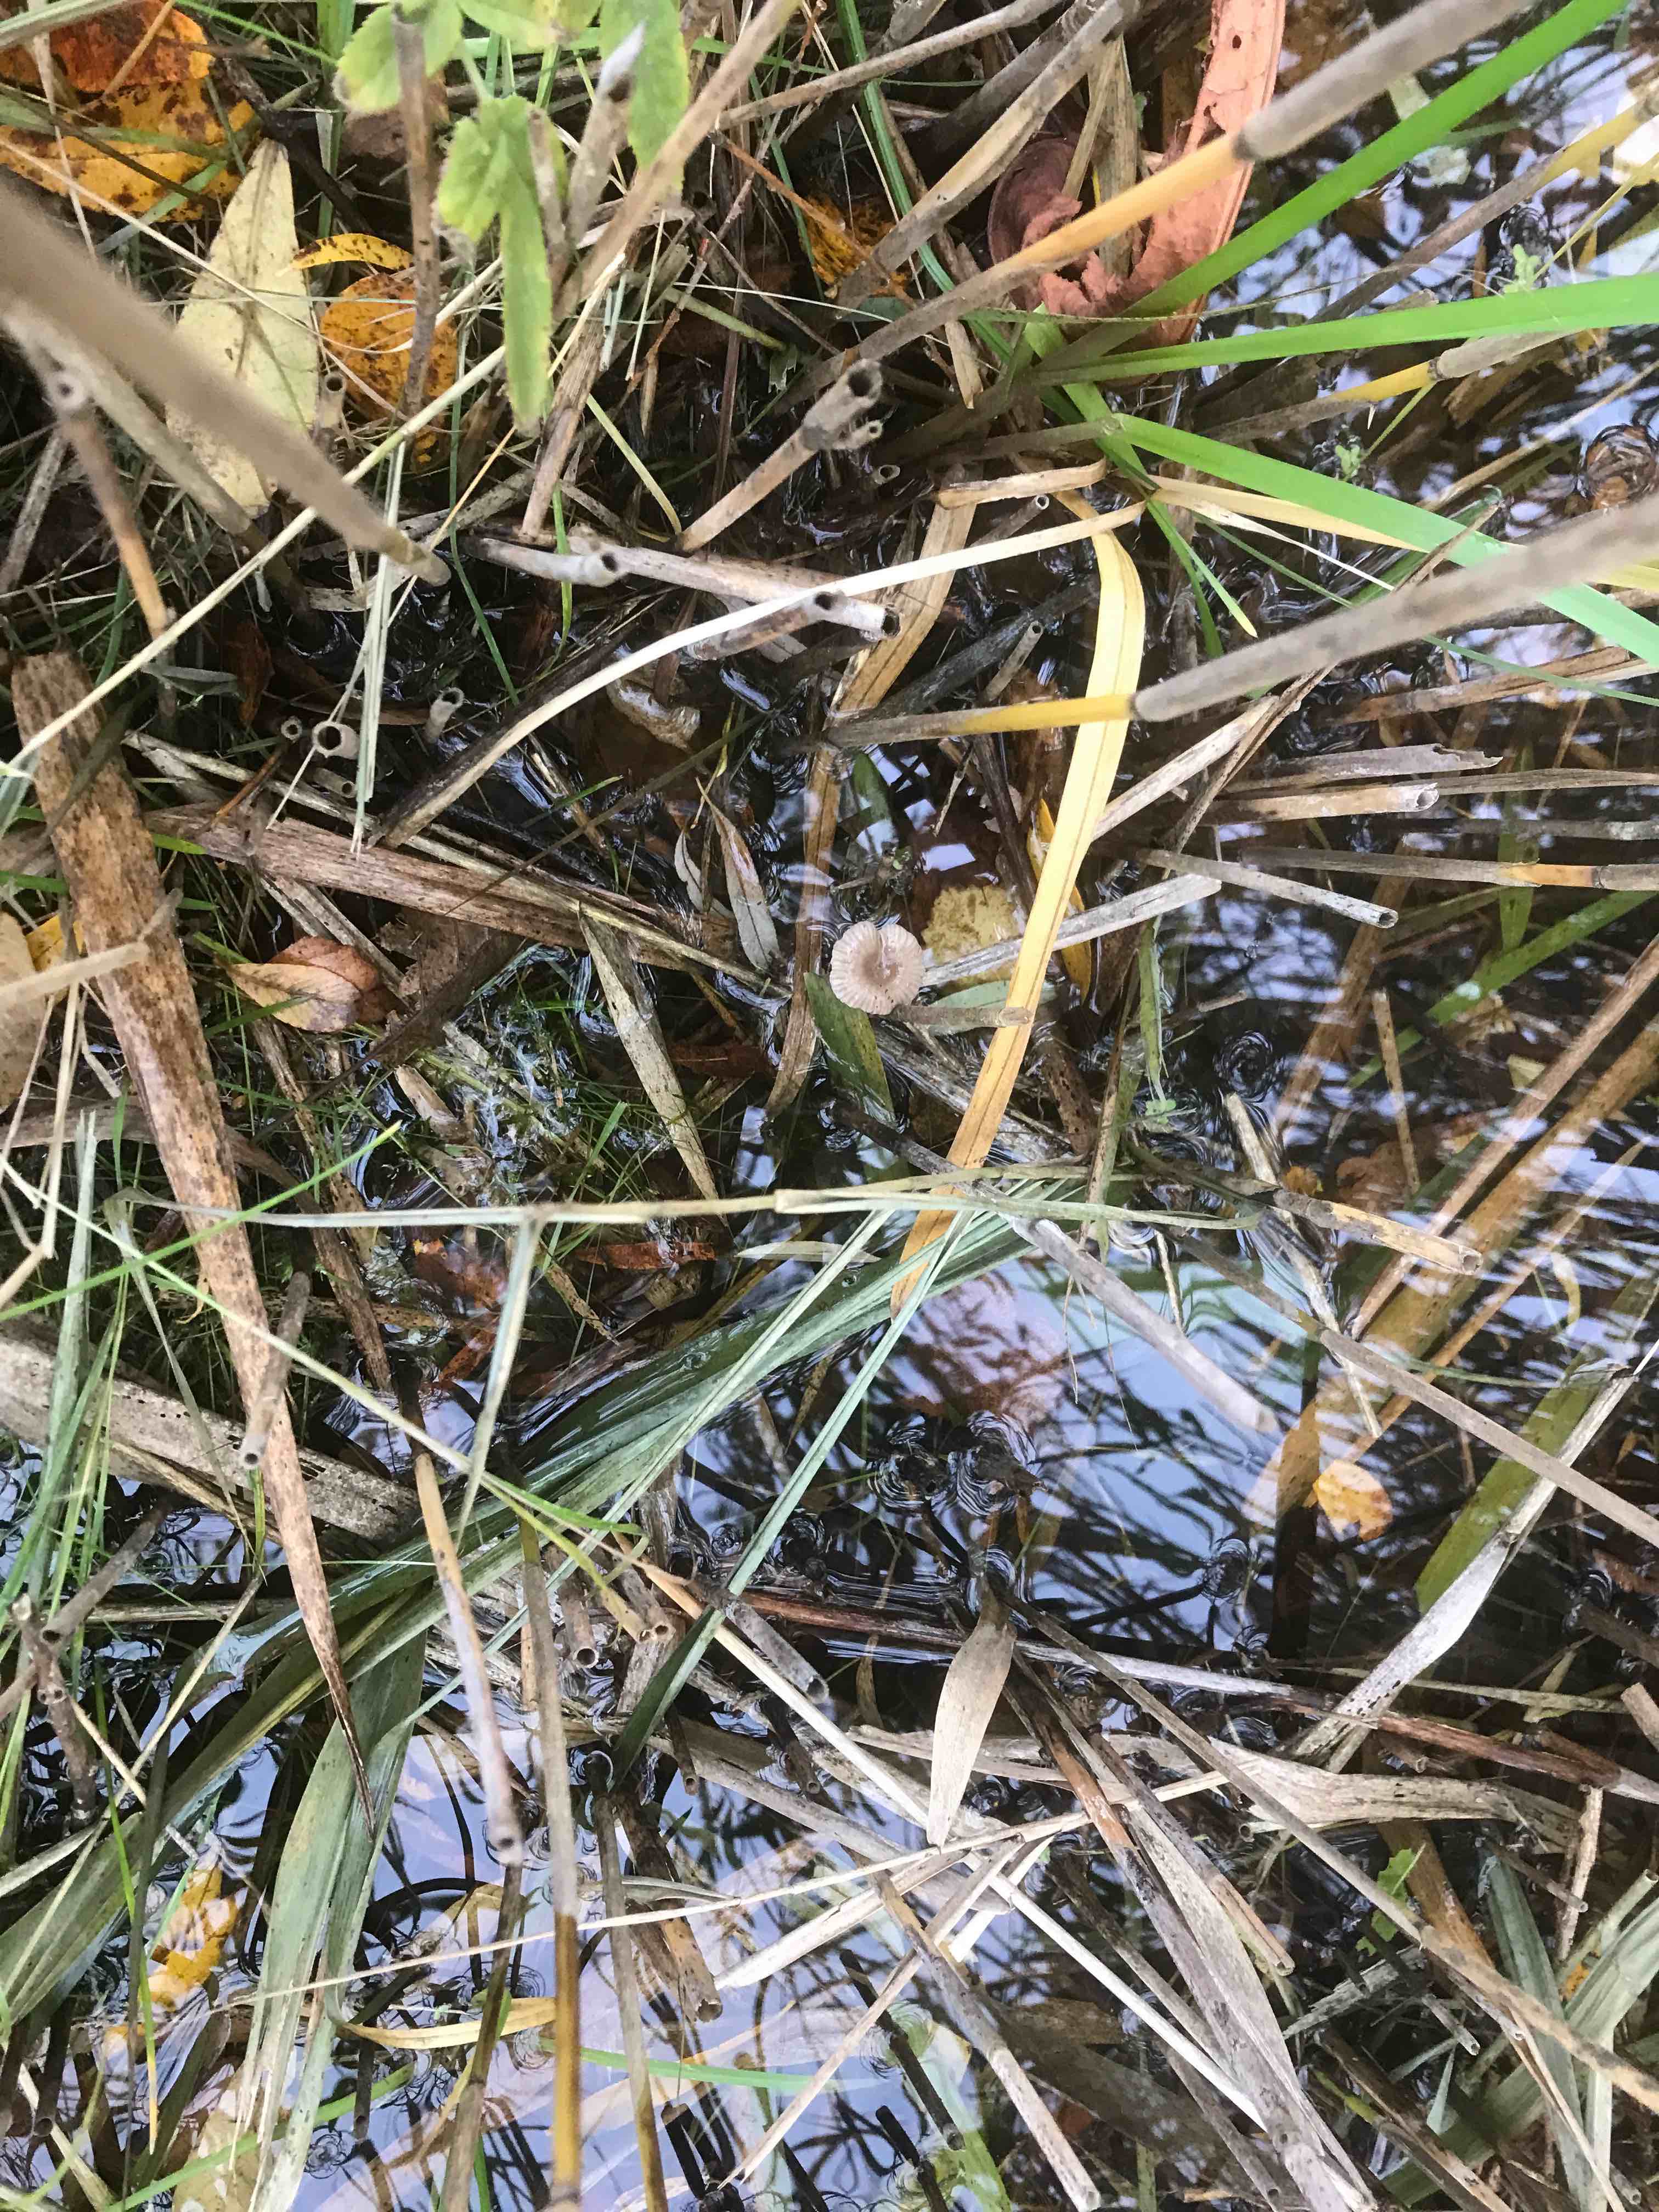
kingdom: Fungi
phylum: Basidiomycota
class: Agaricomycetes
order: Agaricales
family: Mycenaceae
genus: Mycena
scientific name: Mycena belliae
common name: tagrørs-huesvamp
